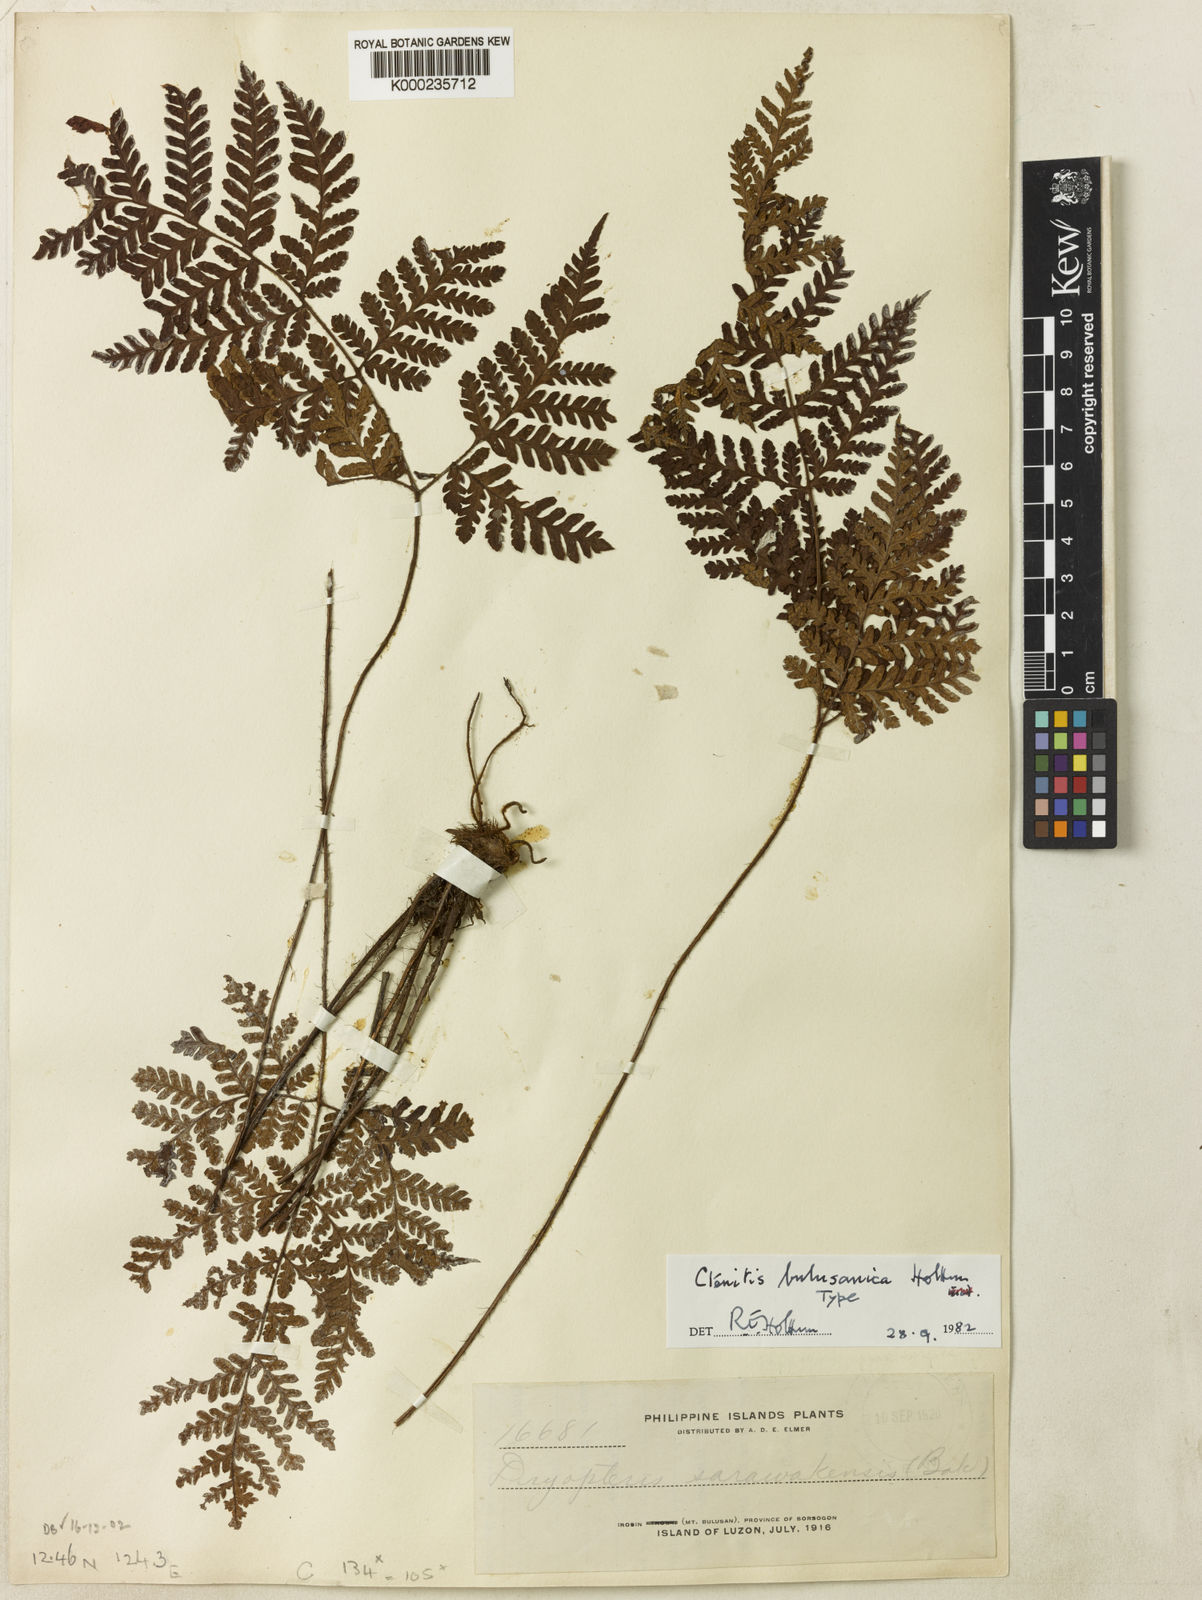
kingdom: Plantae
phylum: Tracheophyta
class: Polypodiopsida
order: Polypodiales
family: Dryopteridaceae
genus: Ctenitis
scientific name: Ctenitis bulusanica
